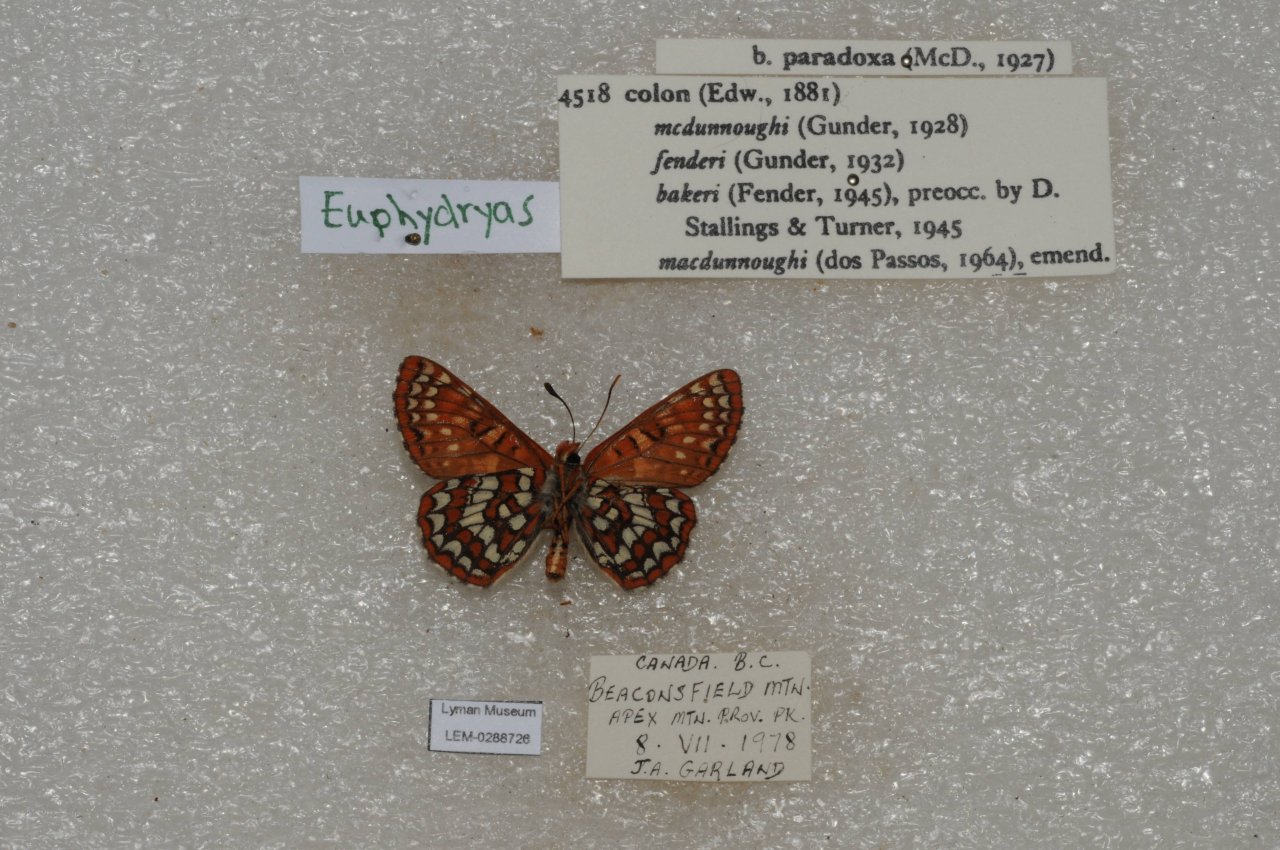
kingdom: Animalia
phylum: Arthropoda
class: Insecta
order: Lepidoptera
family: Nymphalidae
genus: Occidryas
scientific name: Occidryas colon
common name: Snowberry Checkerspot
